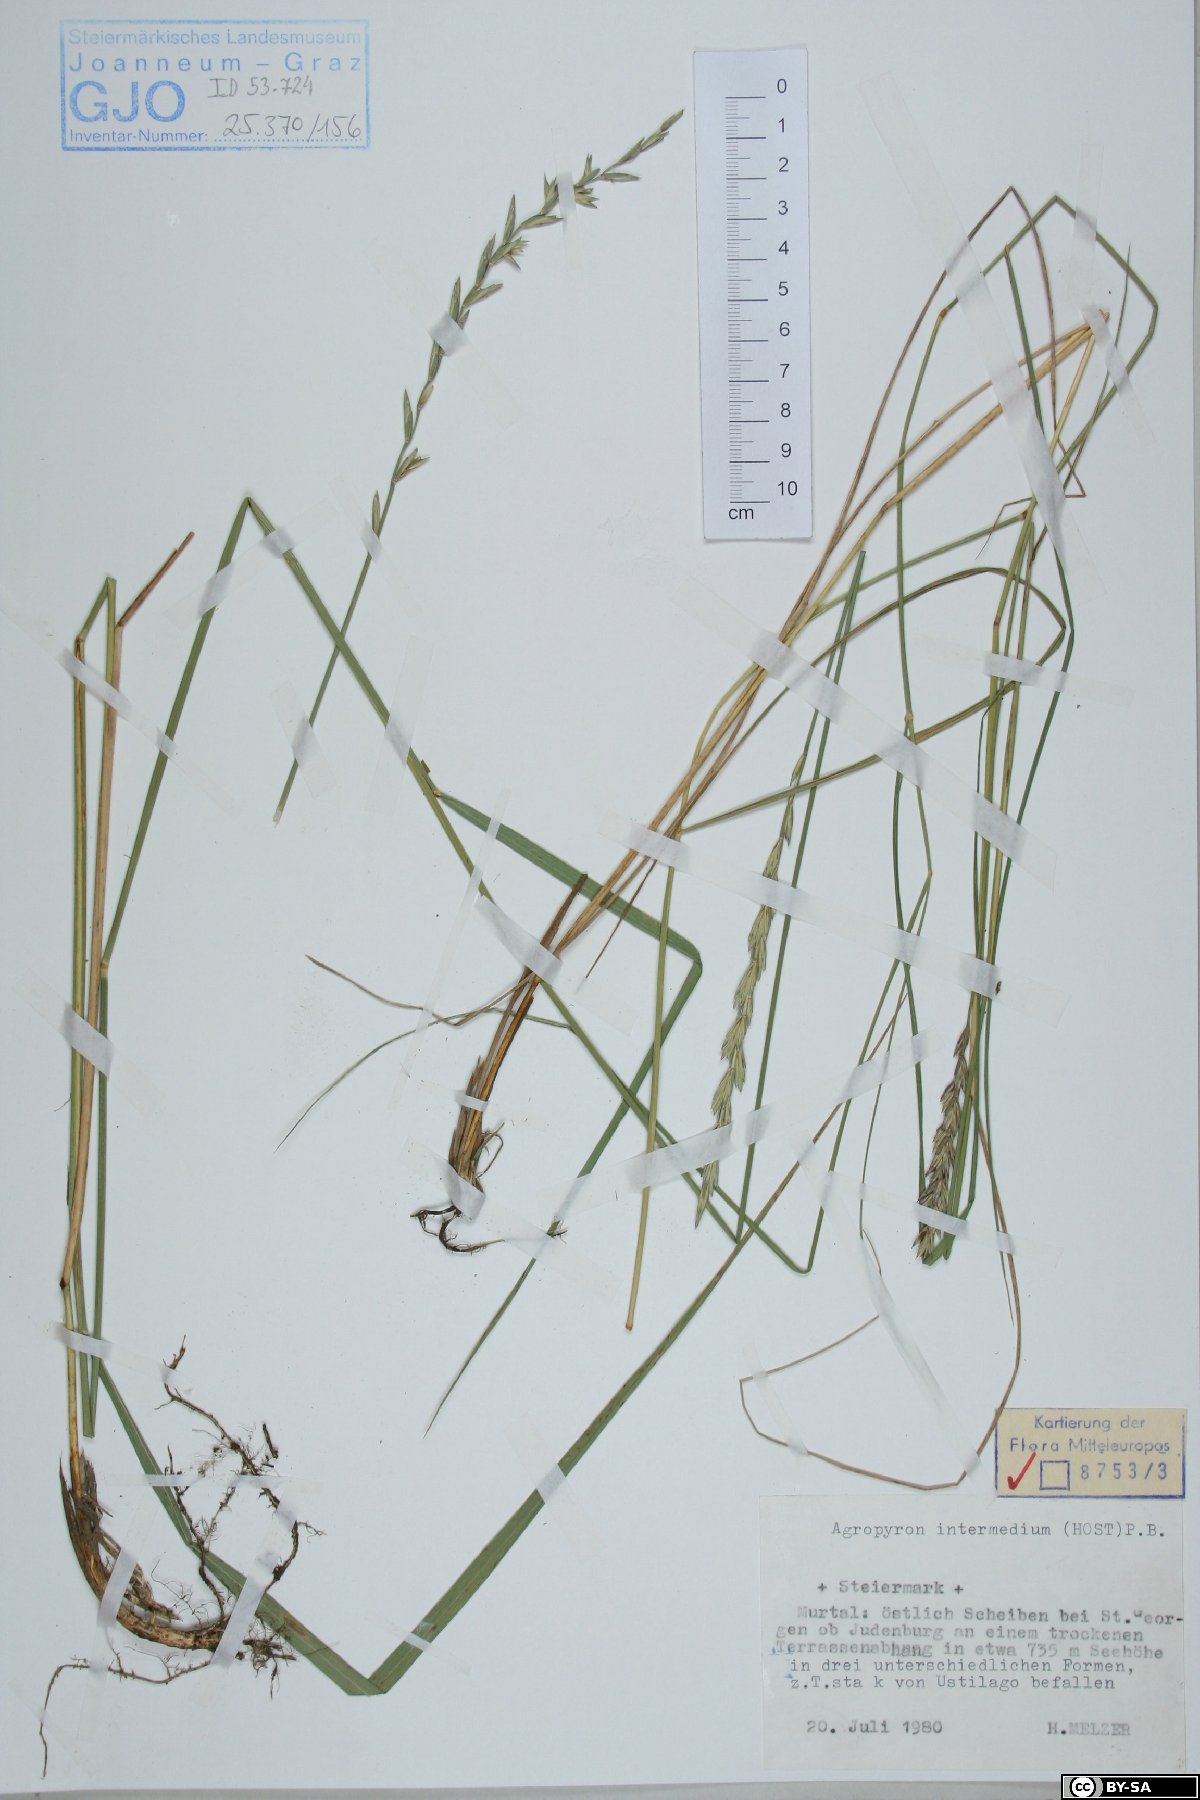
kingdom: Plantae
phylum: Tracheophyta
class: Liliopsida
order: Poales
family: Poaceae
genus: Thinopyrum
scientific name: Thinopyrum intermedium
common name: Intermediate wheatgrass
